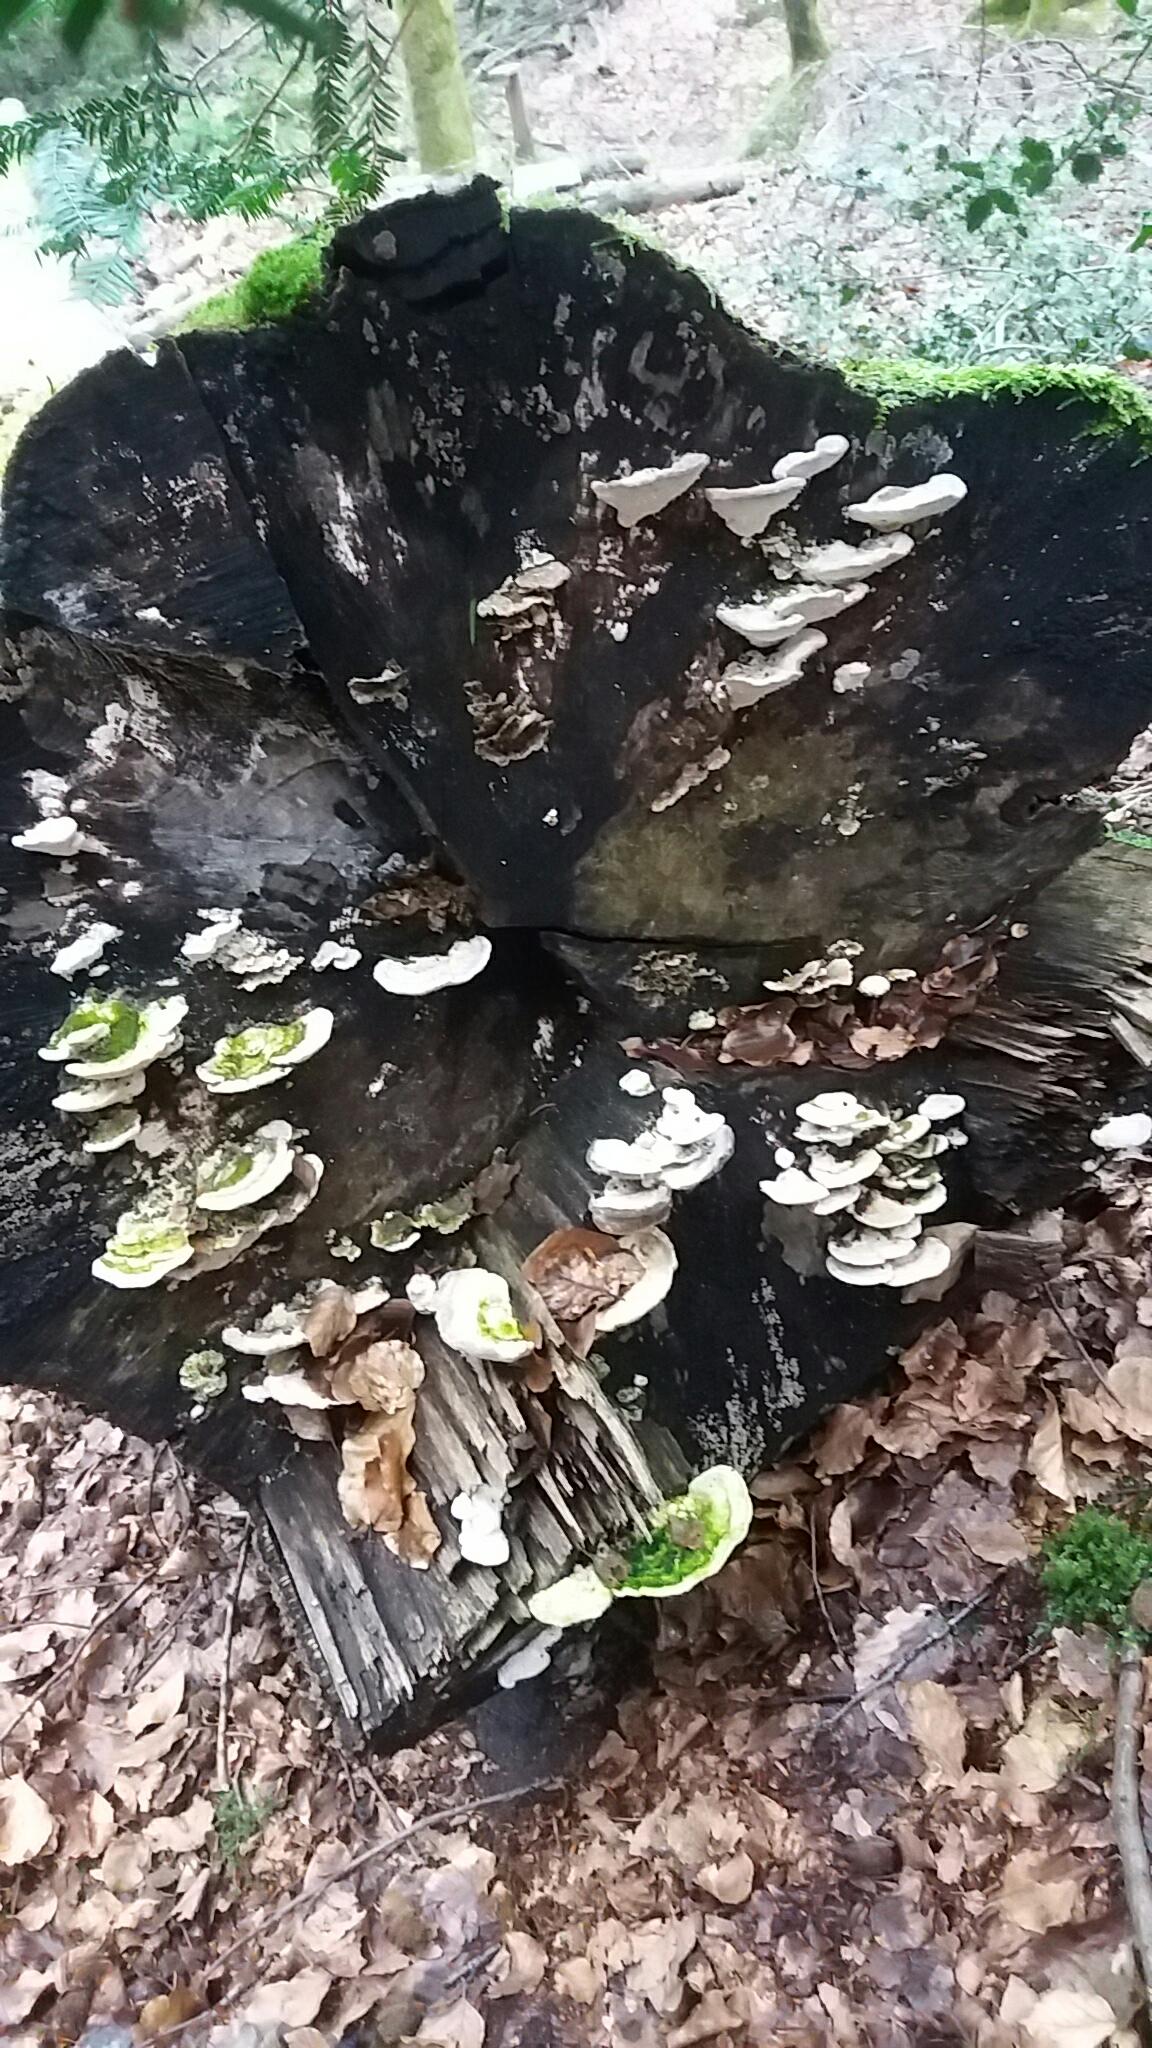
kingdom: Fungi
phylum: Basidiomycota
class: Agaricomycetes
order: Polyporales
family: Polyporaceae
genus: Trametes
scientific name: Trametes gibbosa
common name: puklet læderporesvamp
